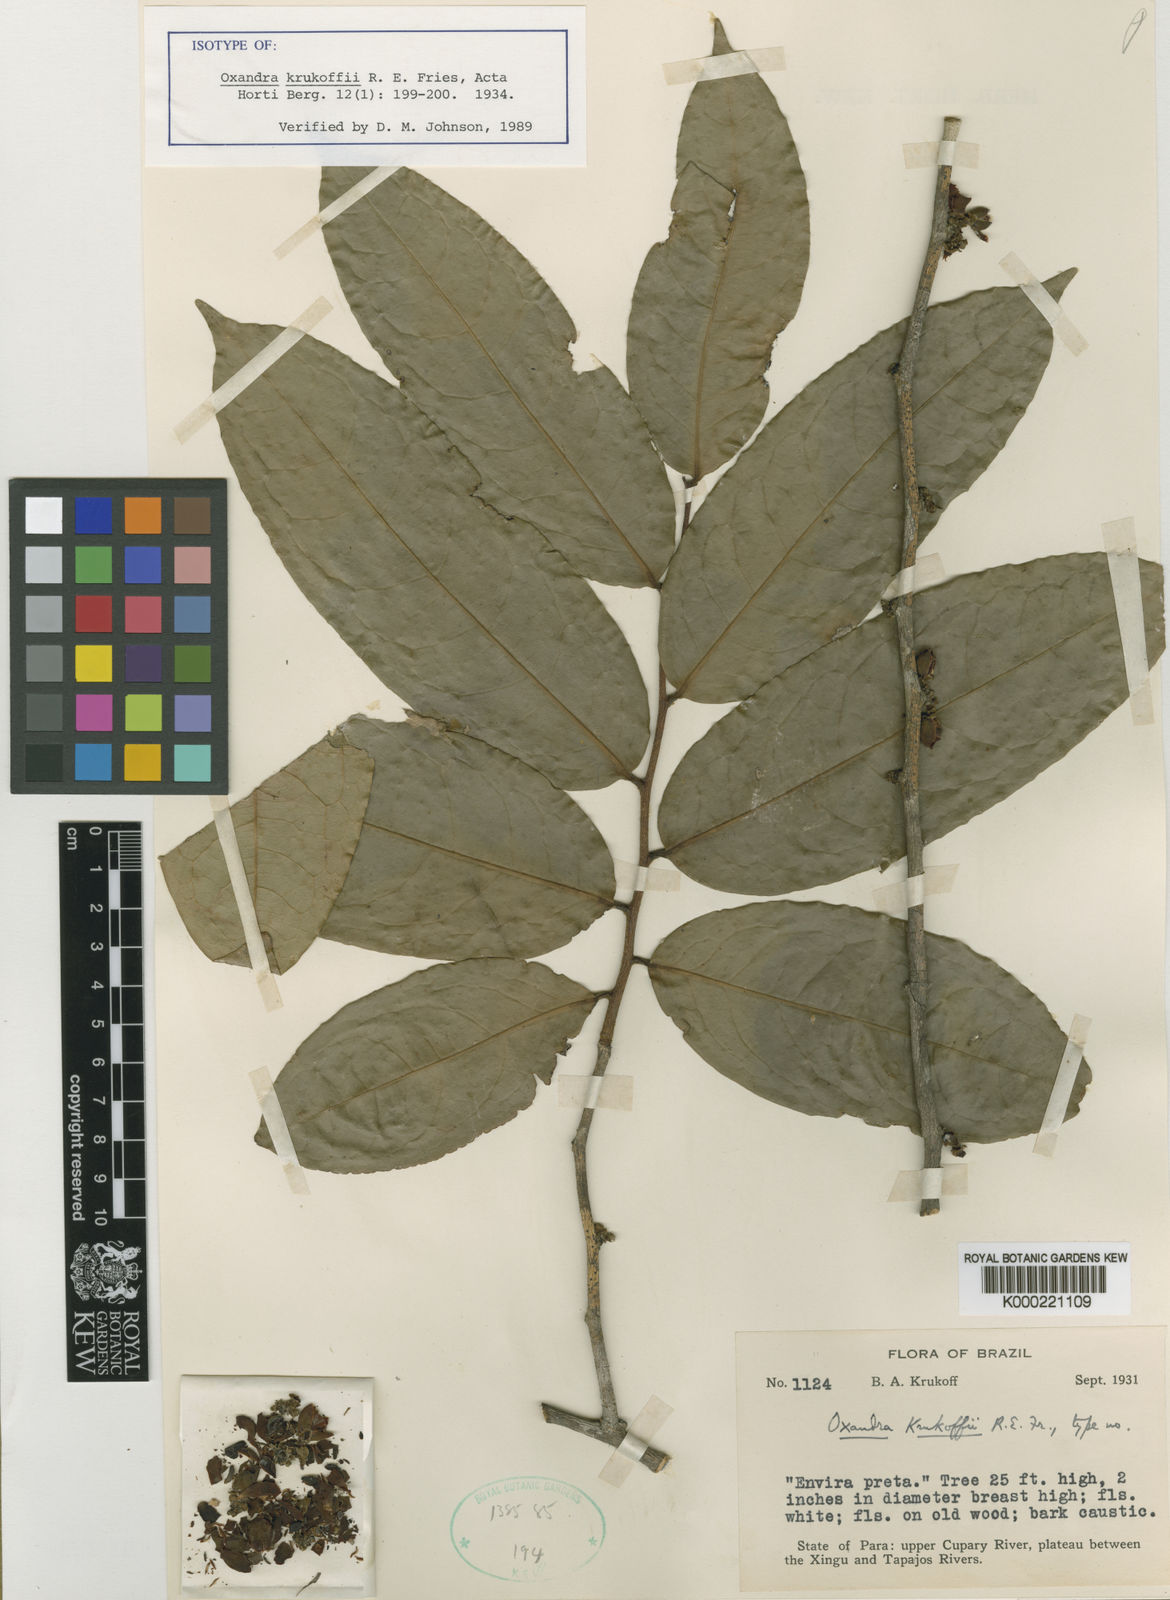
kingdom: Plantae
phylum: Tracheophyta
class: Magnoliopsida
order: Magnoliales
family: Annonaceae
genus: Oxandra
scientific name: Oxandra krukoffii
